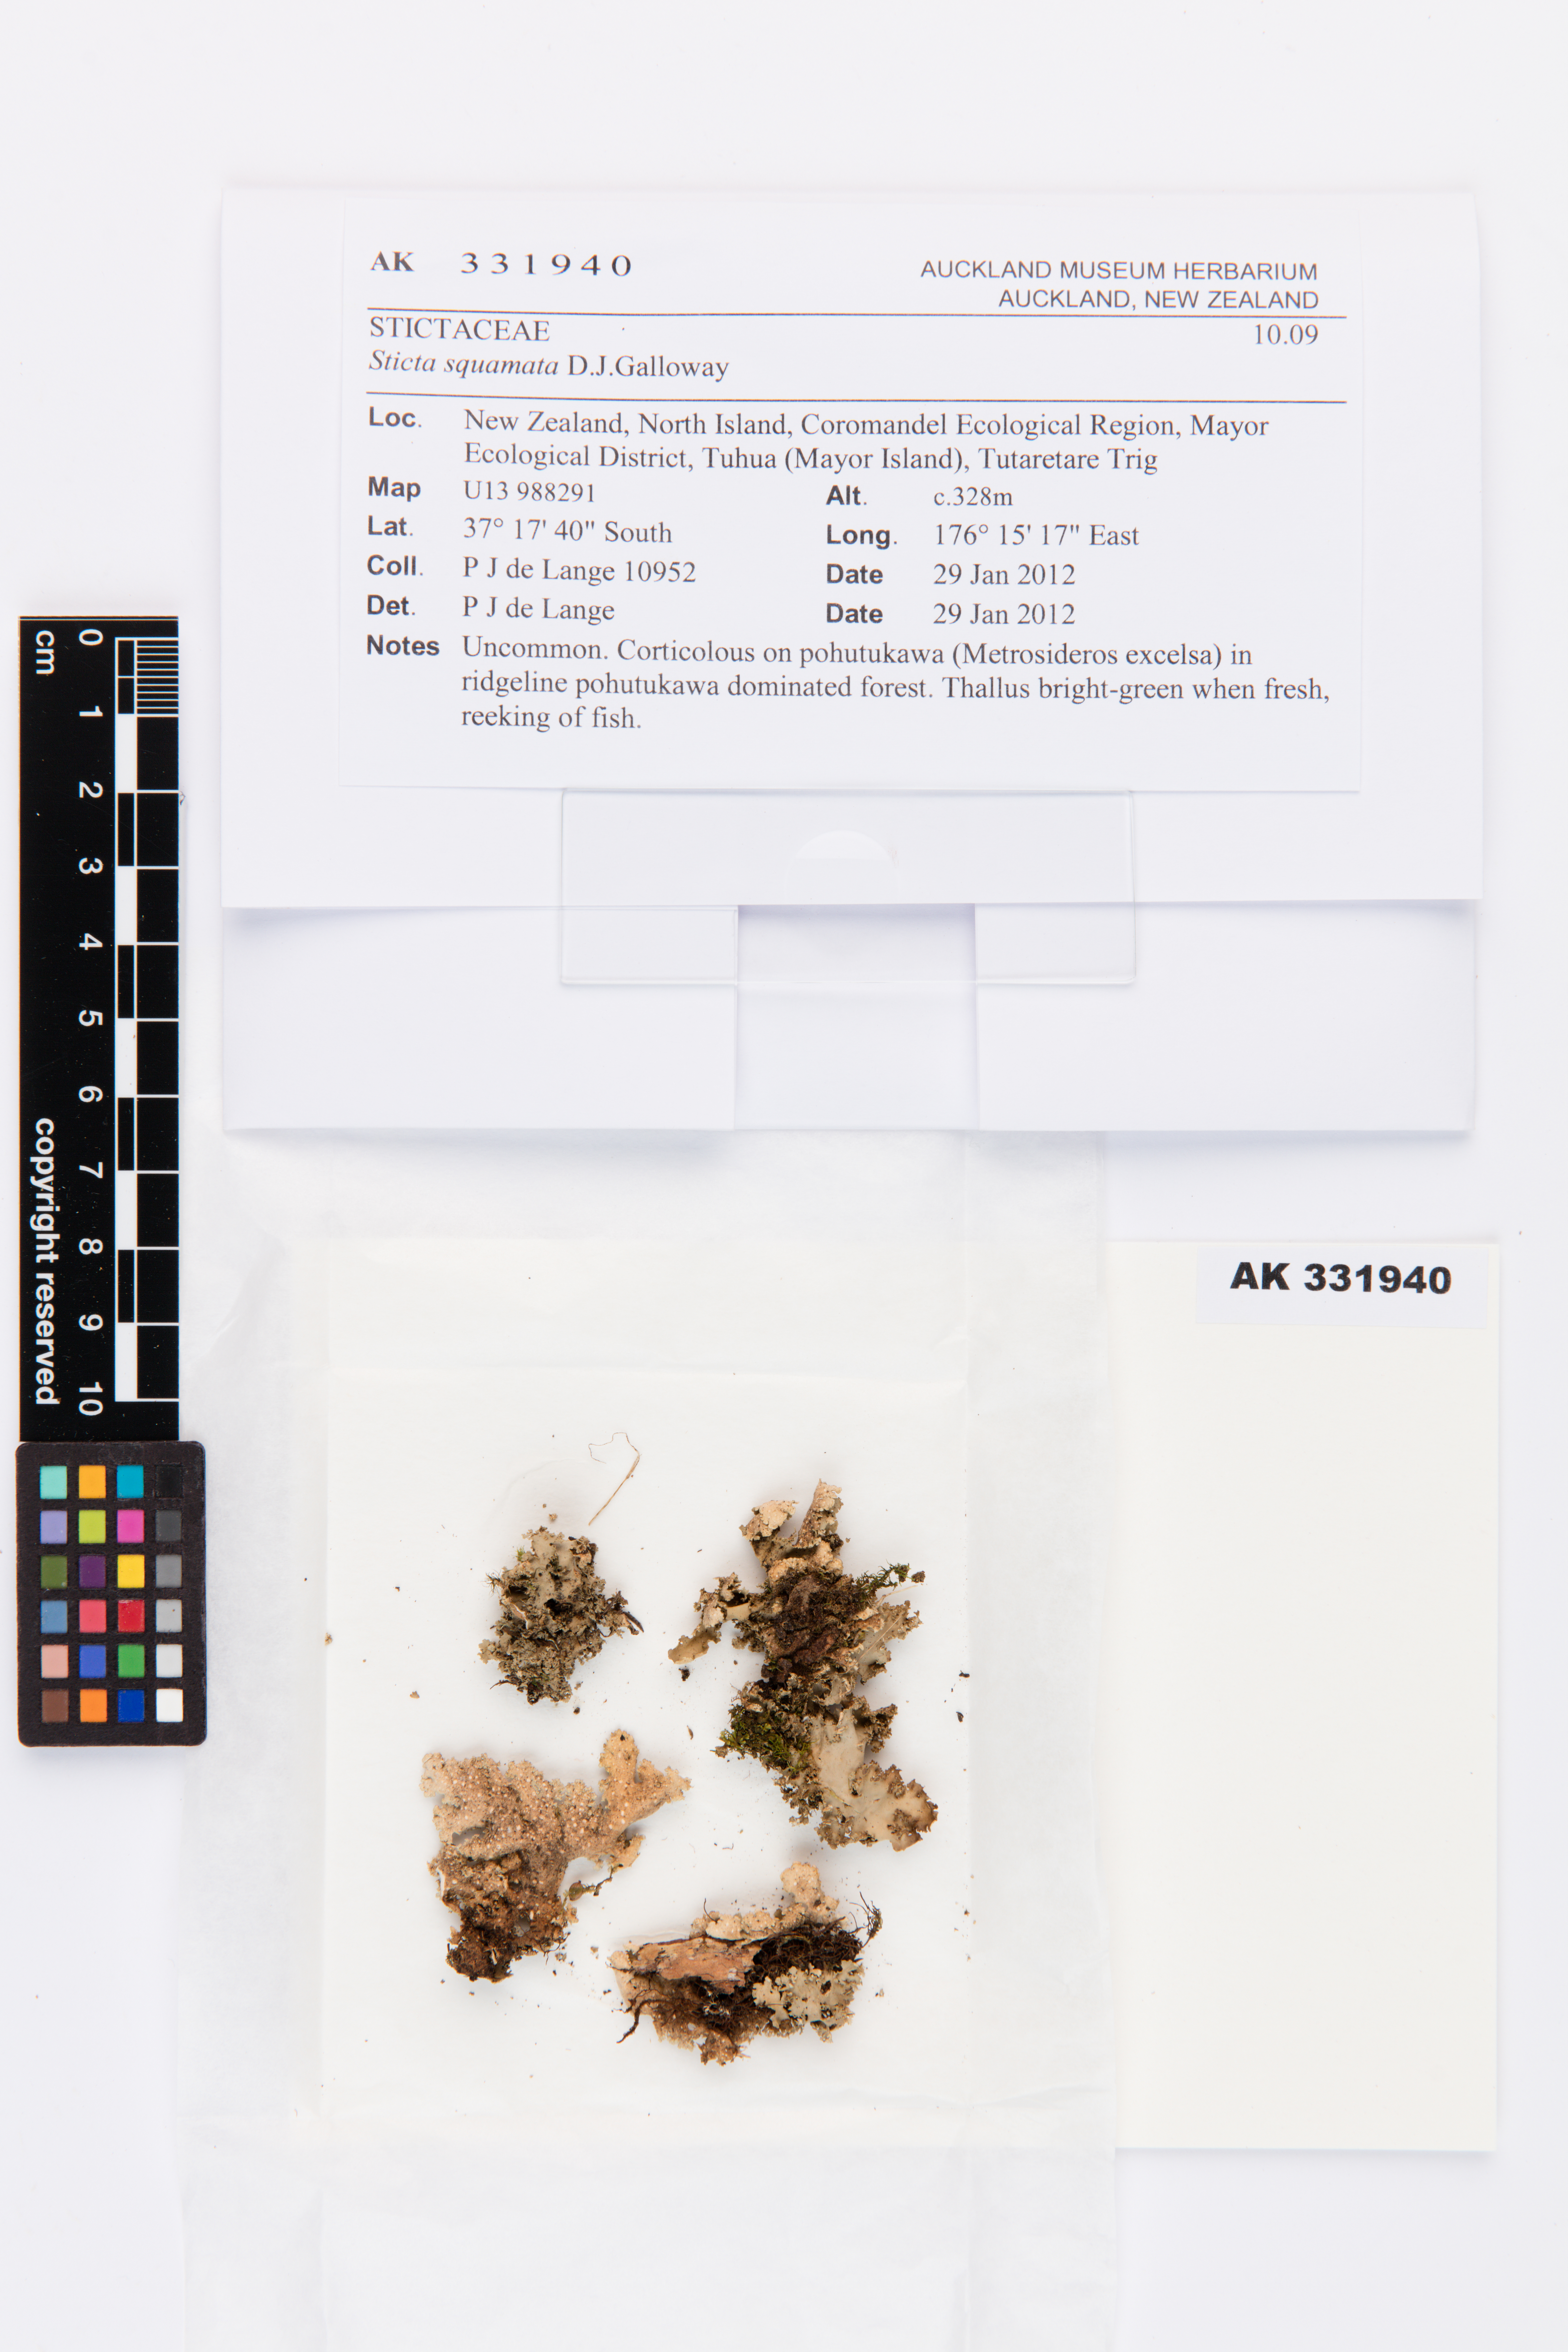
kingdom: Fungi
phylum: Ascomycota
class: Lecanoromycetes
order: Peltigerales
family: Lobariaceae
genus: Sticta
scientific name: Sticta squamata
